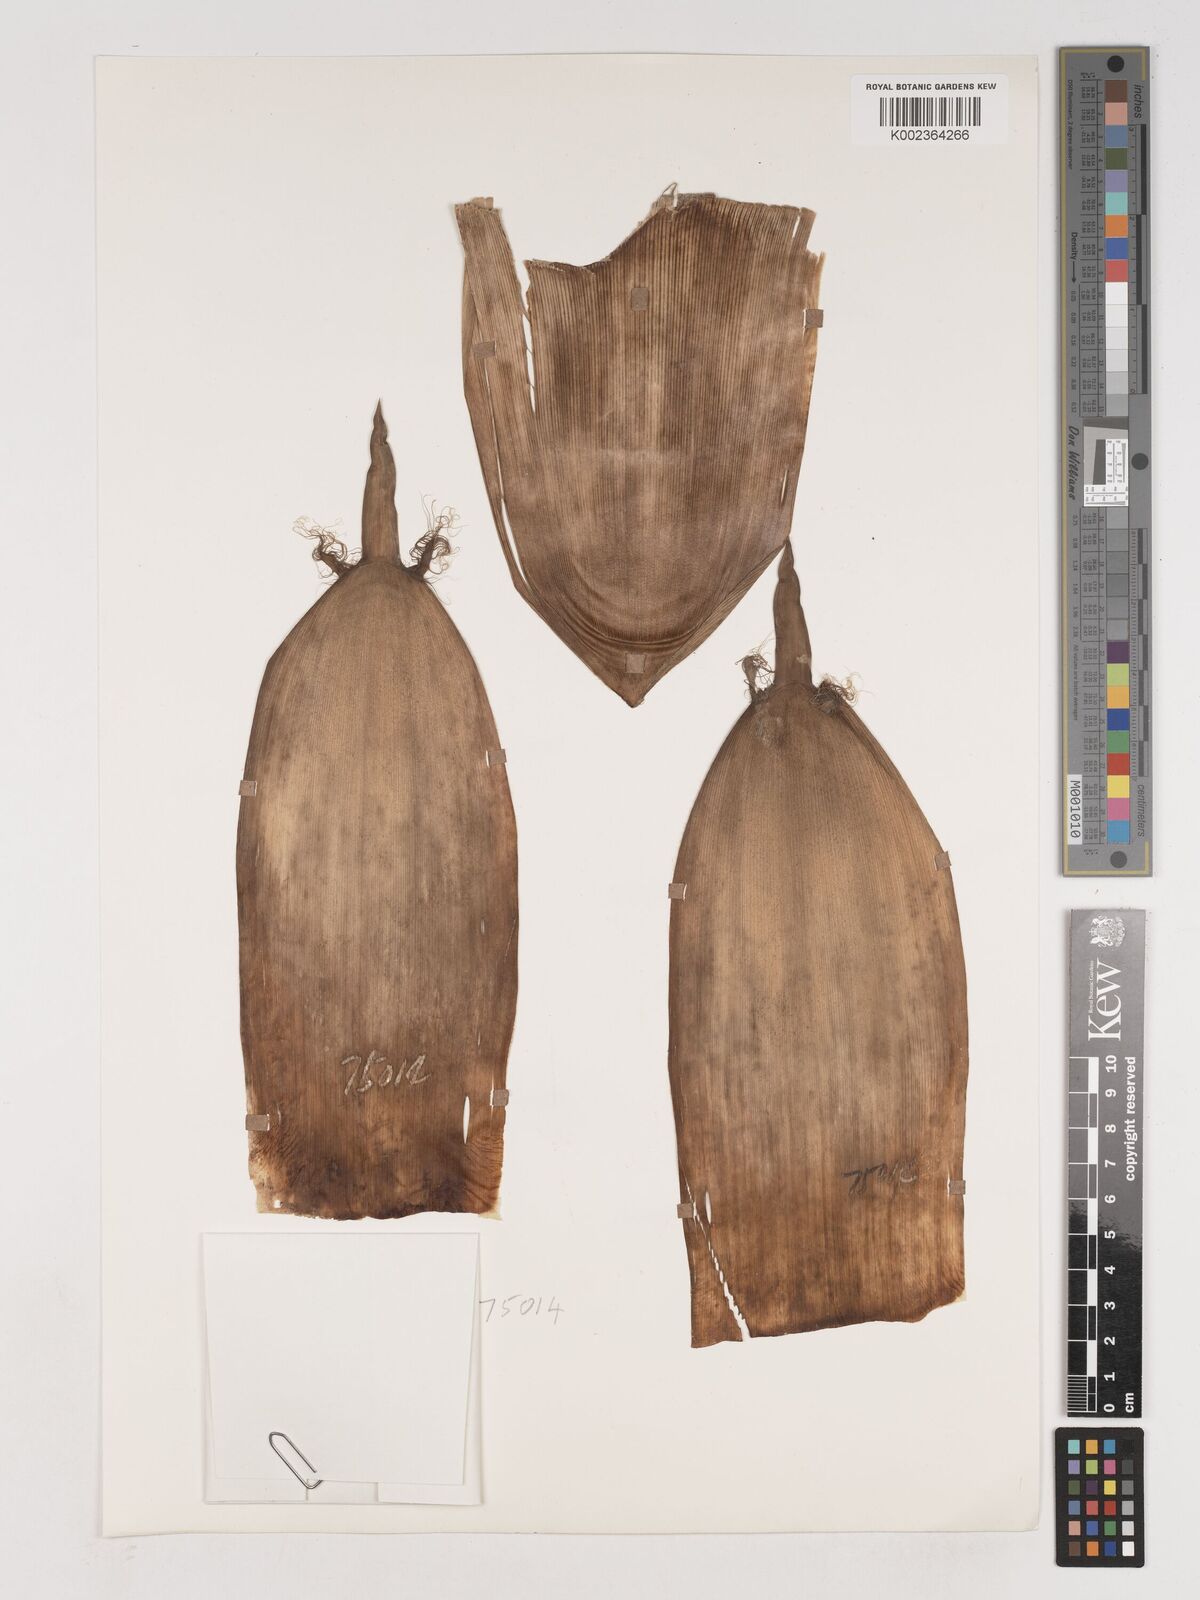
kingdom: Plantae
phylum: Tracheophyta
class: Liliopsida
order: Poales
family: Poaceae
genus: Phyllostachys
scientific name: Phyllostachys nigra
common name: Black bamboo
